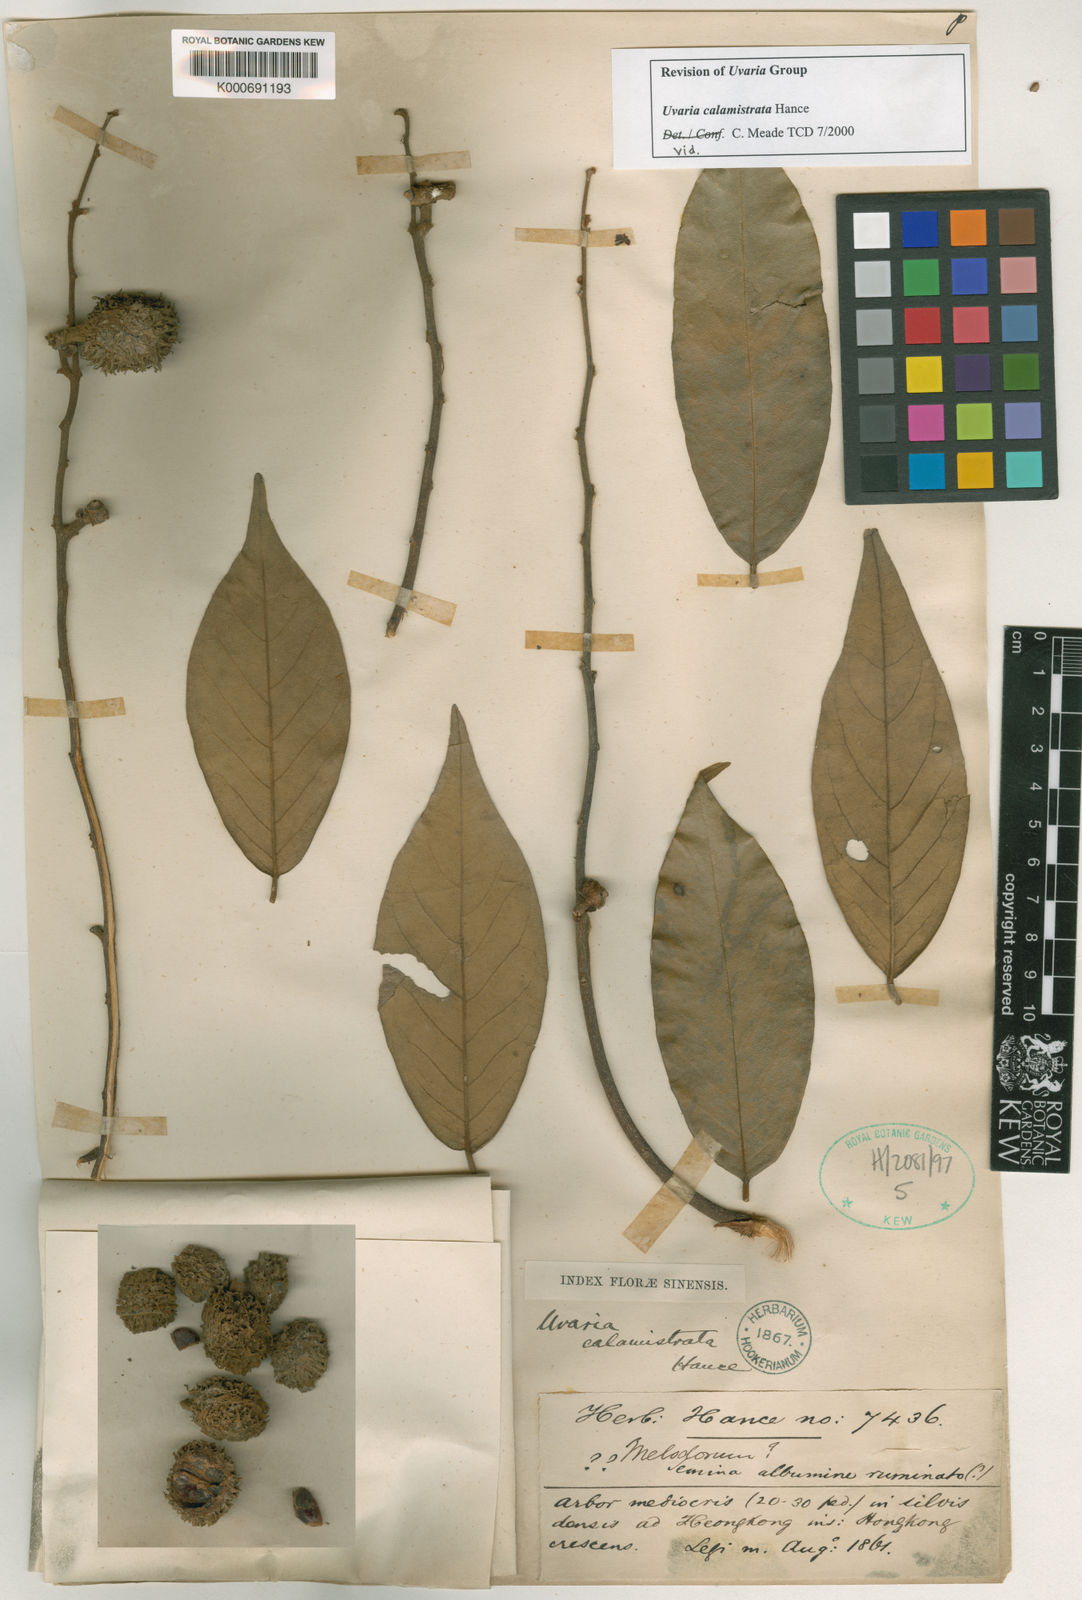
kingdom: Plantae
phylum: Tracheophyta
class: Magnoliopsida
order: Magnoliales
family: Annonaceae
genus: Uvaria
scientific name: Uvaria calamistrata
